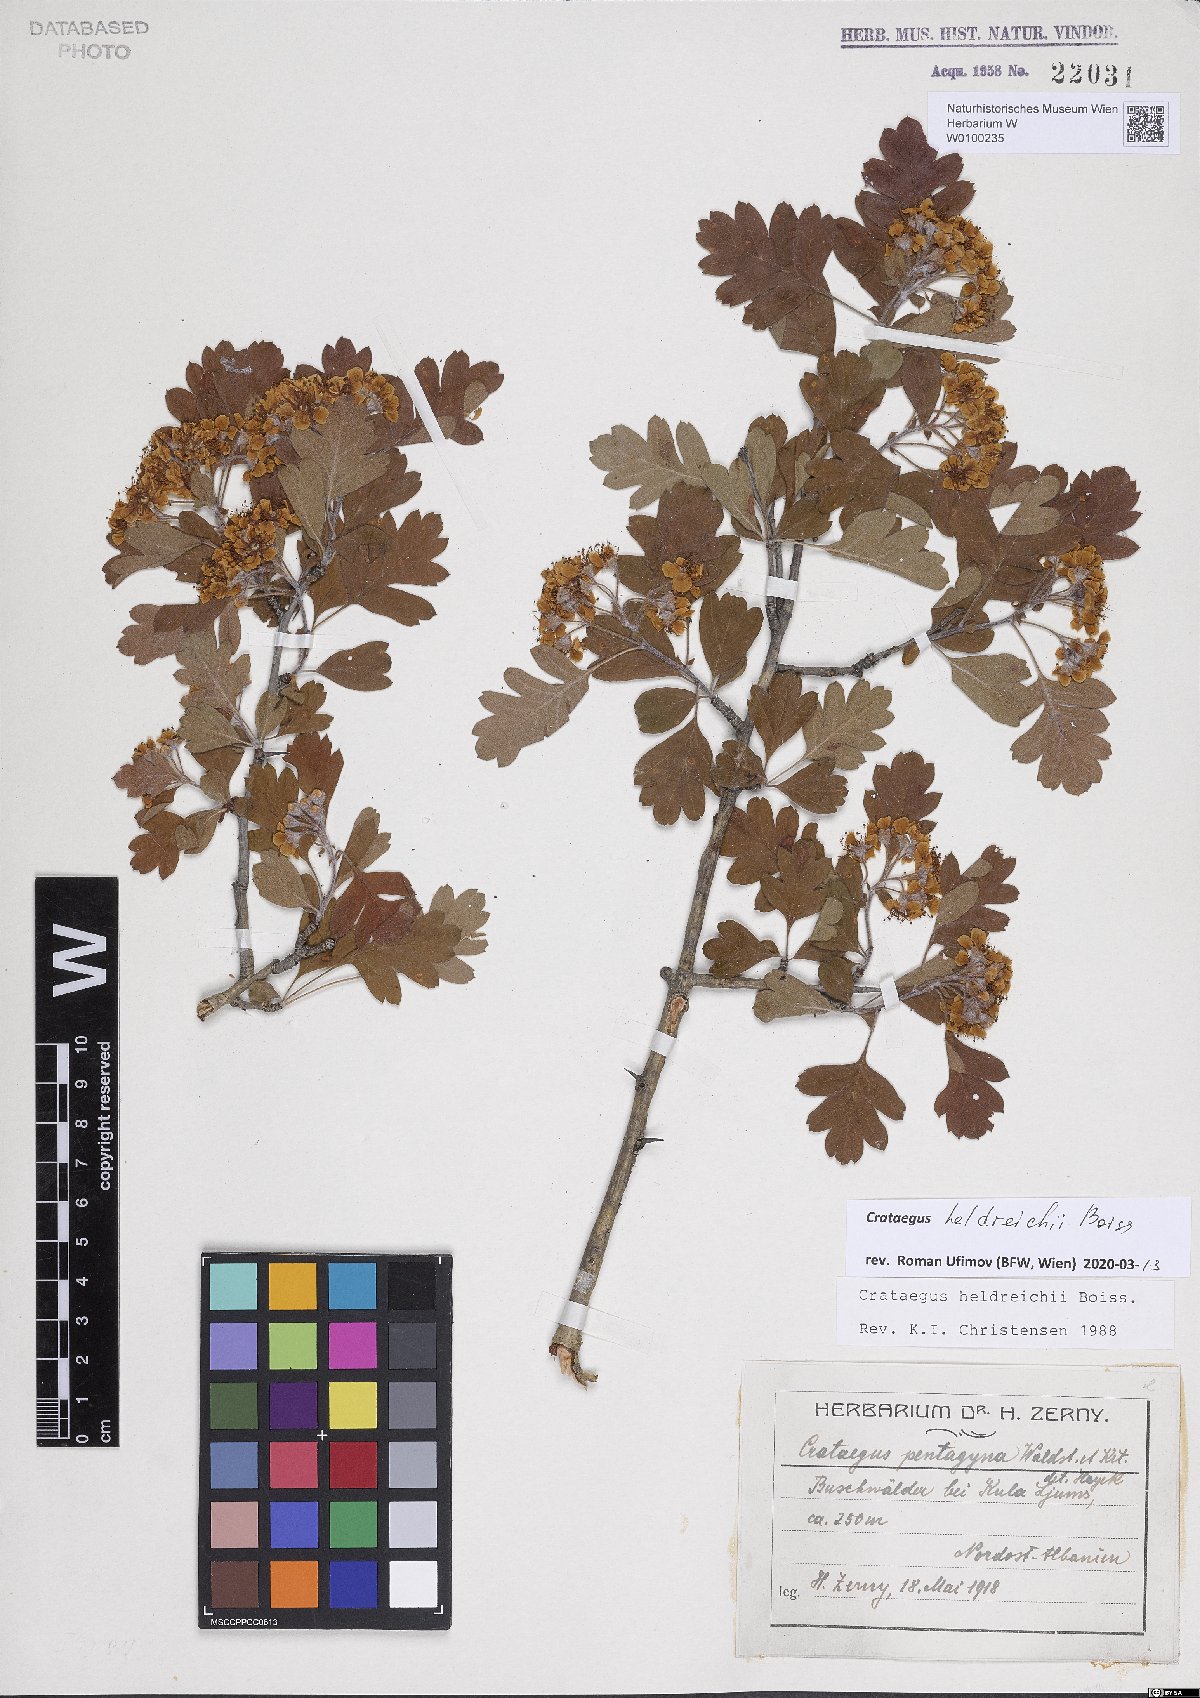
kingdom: Plantae
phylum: Tracheophyta
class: Magnoliopsida
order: Rosales
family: Rosaceae
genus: Crataegus
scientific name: Crataegus heldreichii
